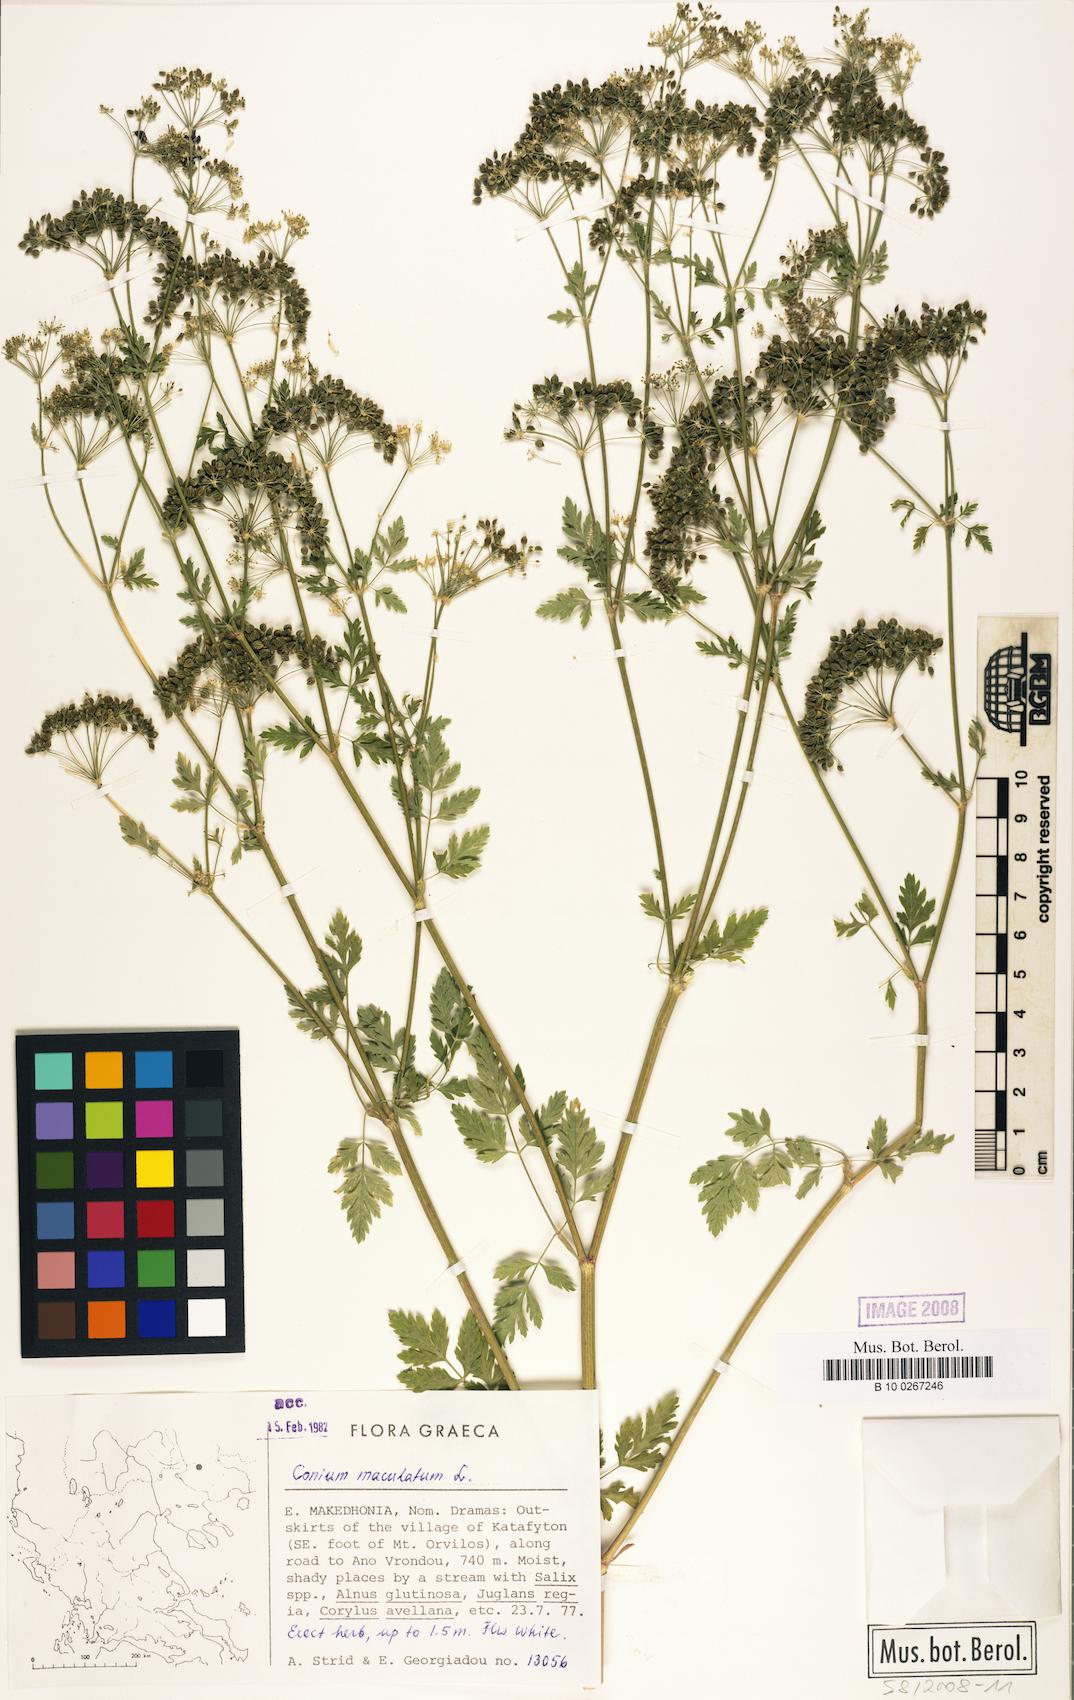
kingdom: Plantae
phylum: Tracheophyta
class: Magnoliopsida
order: Apiales
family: Apiaceae
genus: Conium
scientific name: Conium maculatum
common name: Hemlock
